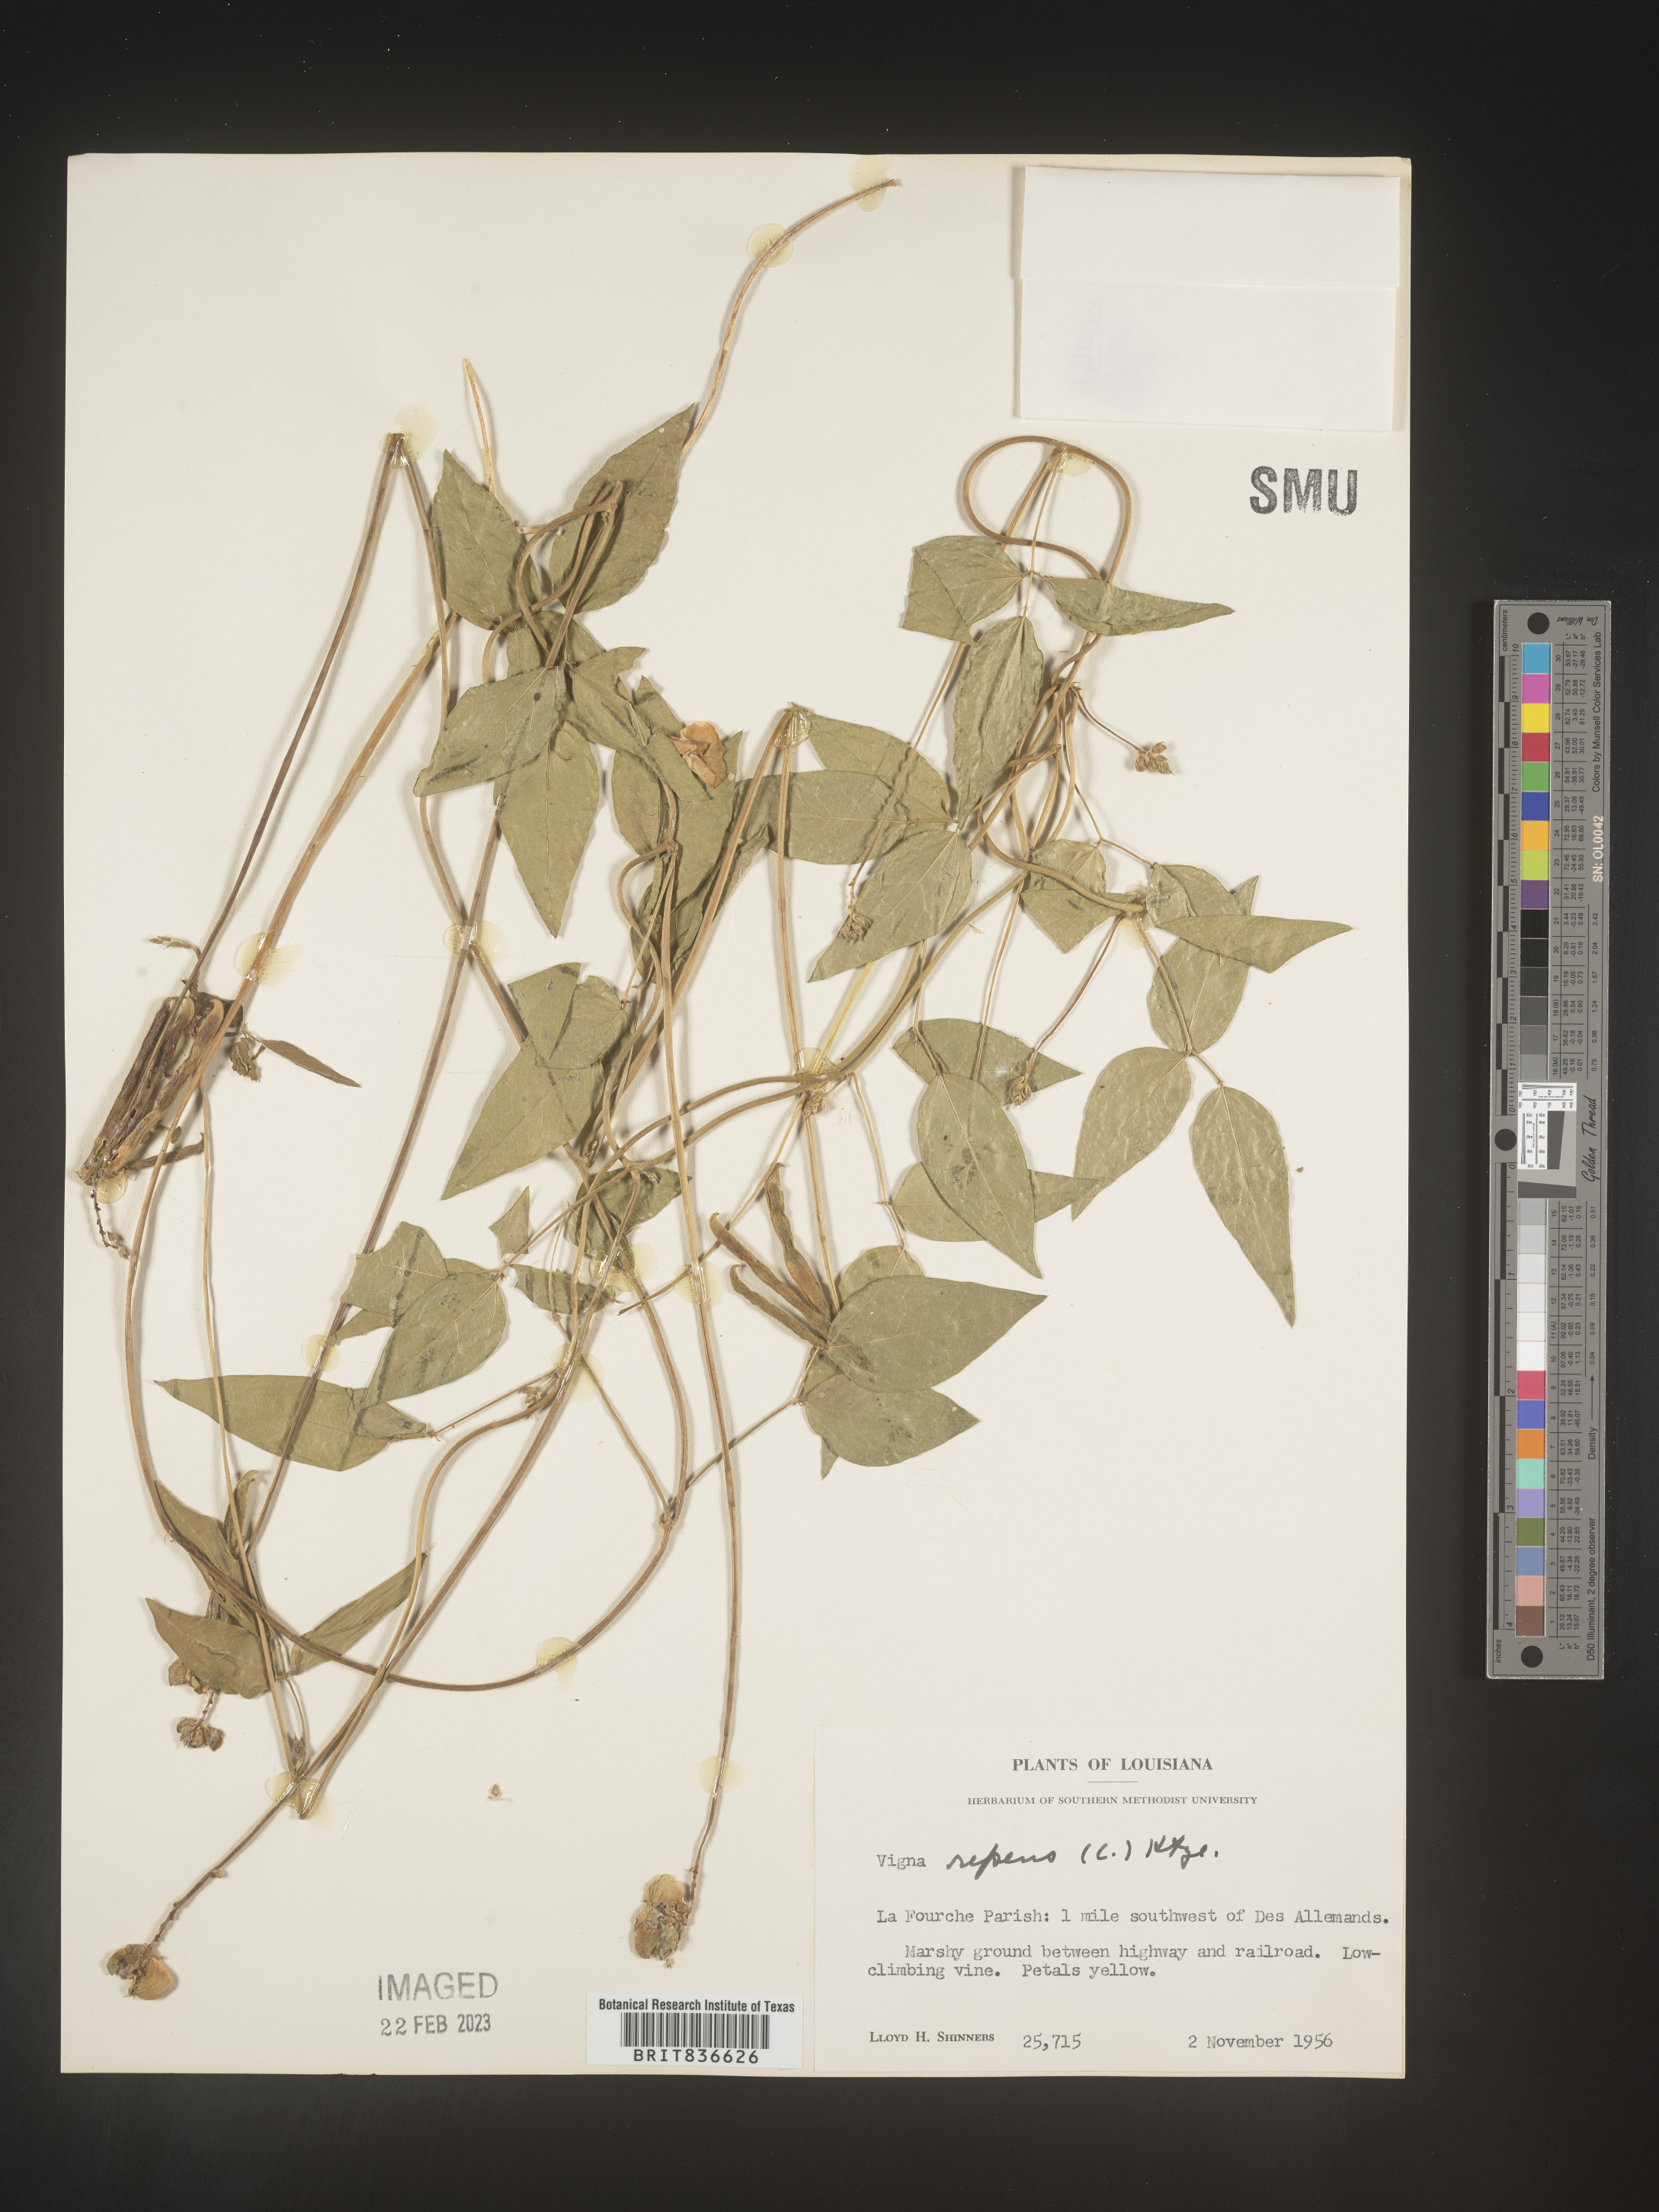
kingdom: Plantae
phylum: Tracheophyta
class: Magnoliopsida
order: Fabales
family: Fabaceae
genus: Vigna
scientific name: Vigna
